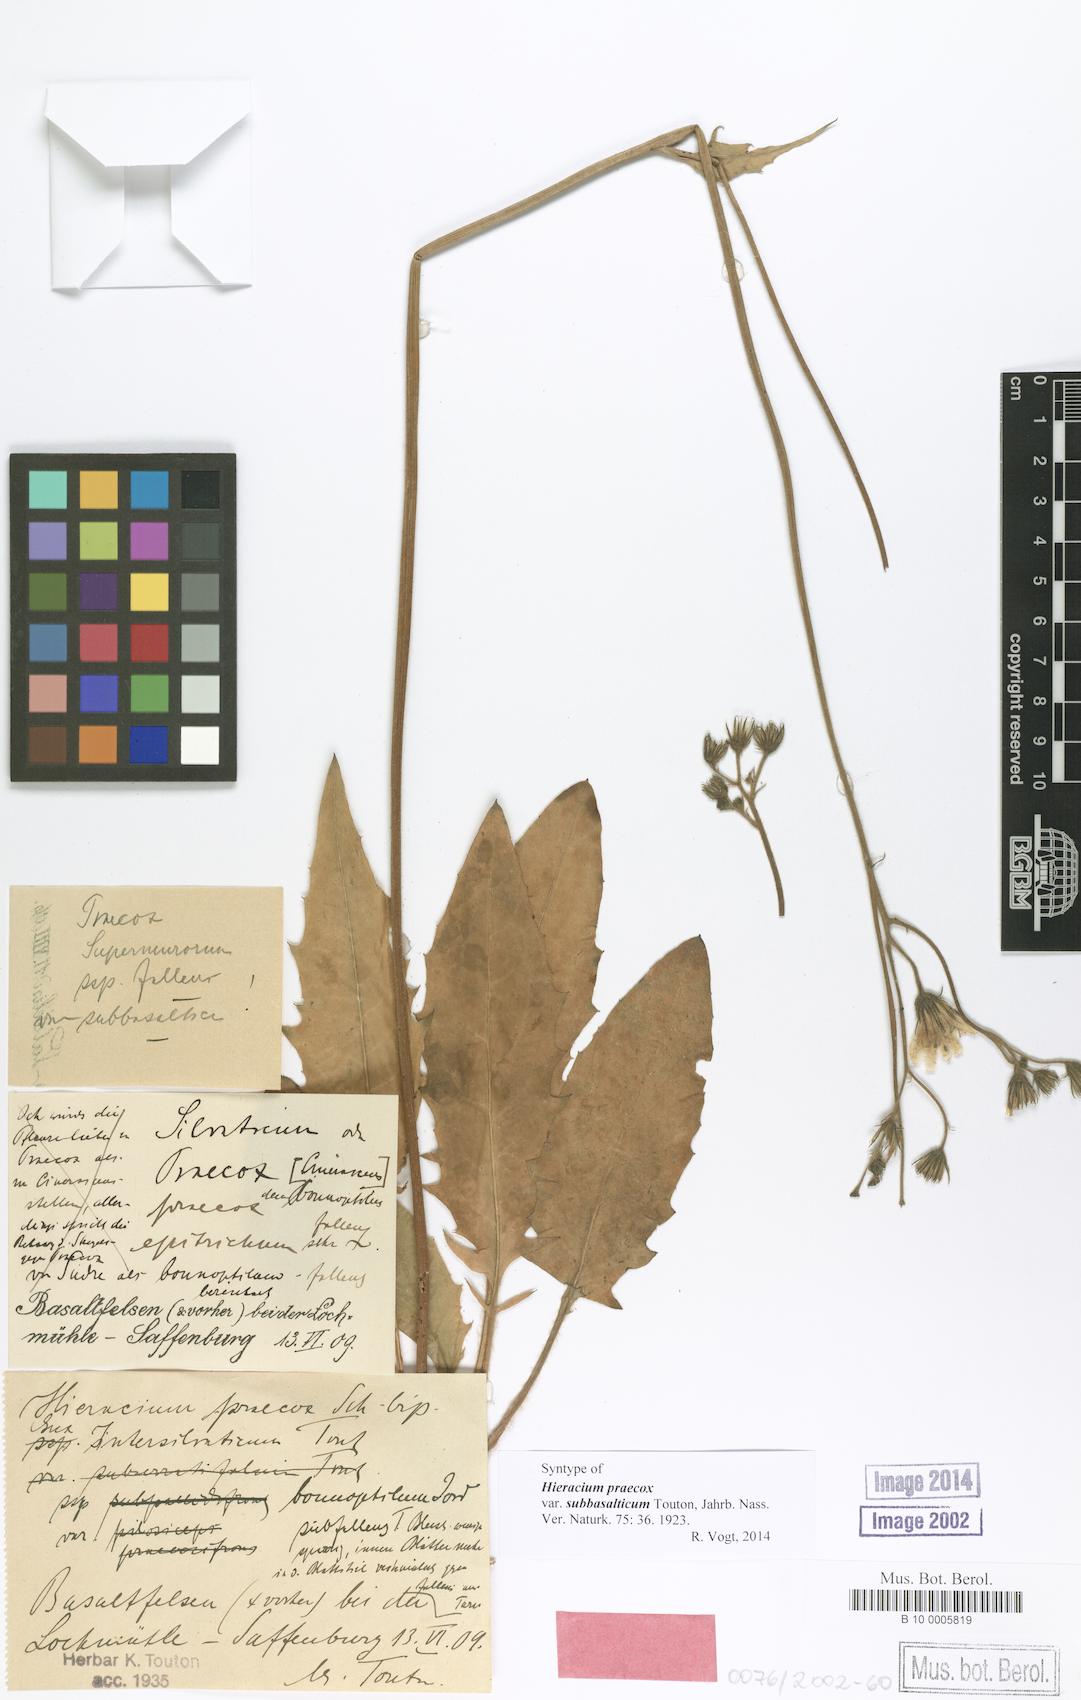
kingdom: Plantae
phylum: Tracheophyta
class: Magnoliopsida
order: Asterales
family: Asteraceae
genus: Hieracium
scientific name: Hieracium praecox
